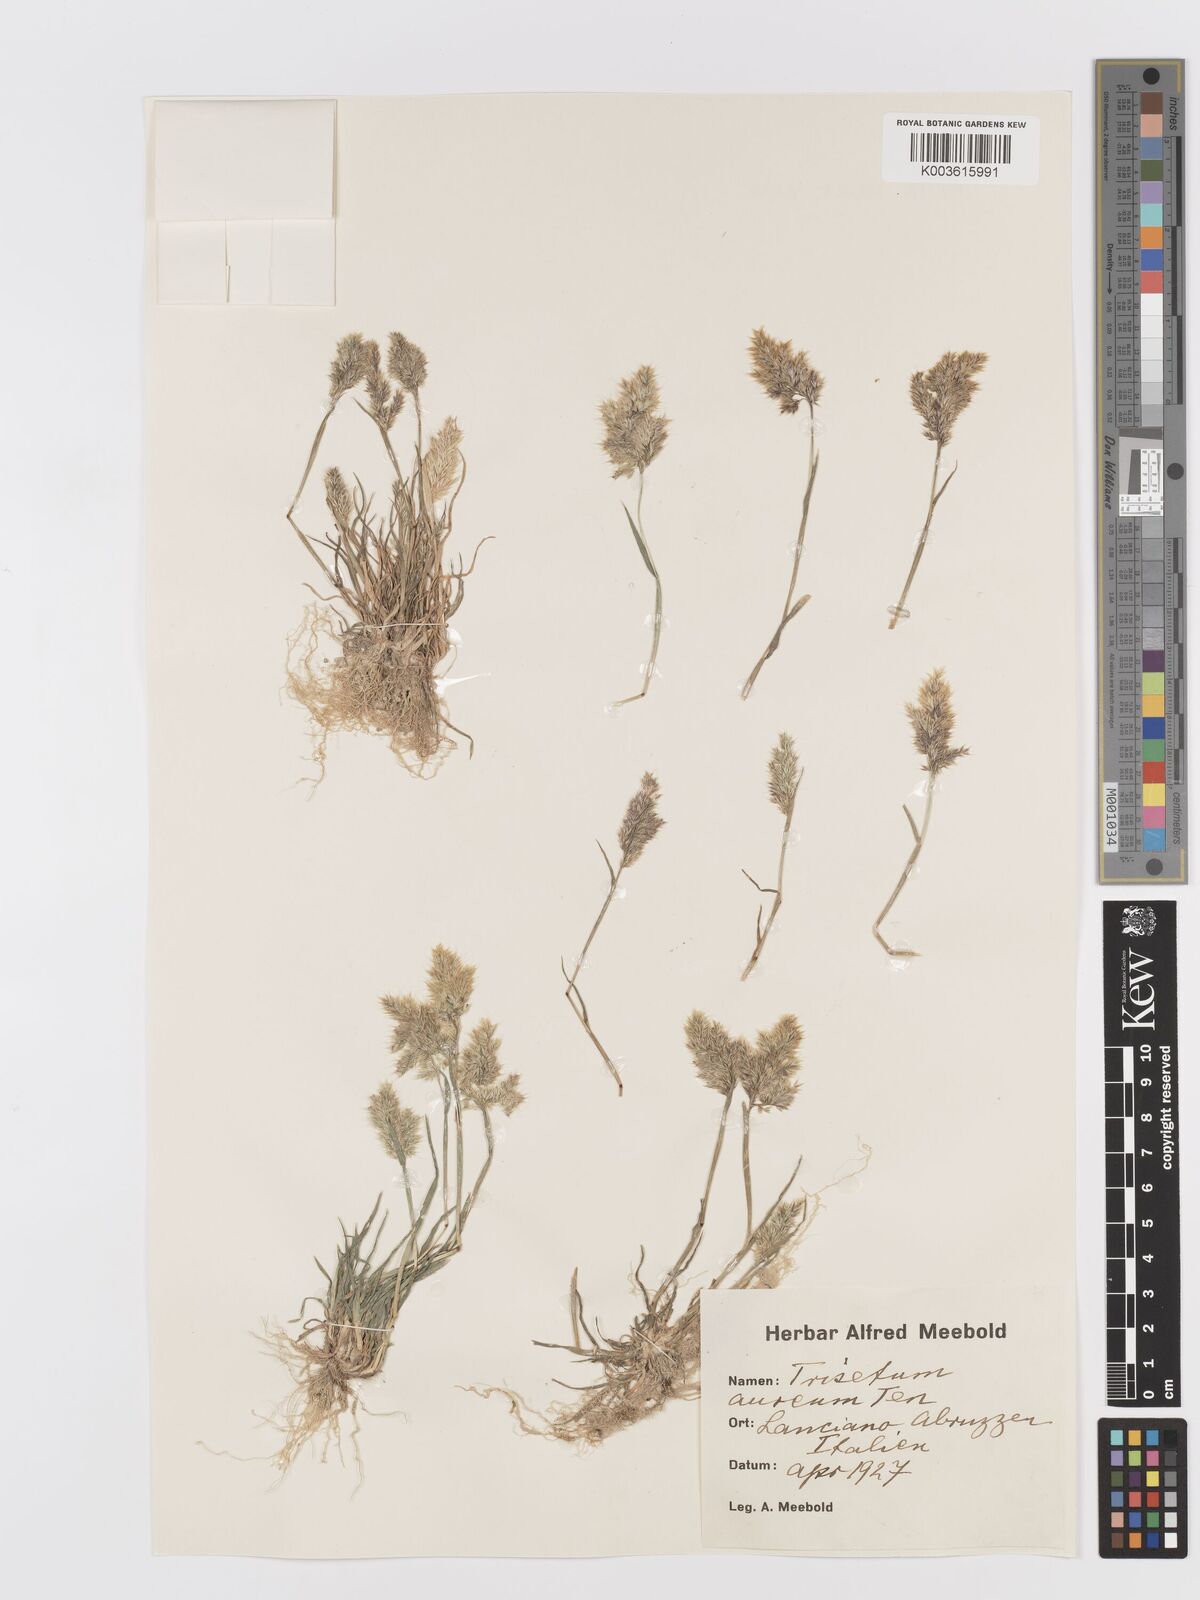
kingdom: Plantae
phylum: Tracheophyta
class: Liliopsida
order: Poales
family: Poaceae
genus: Trisetaria
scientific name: Trisetaria aurea
